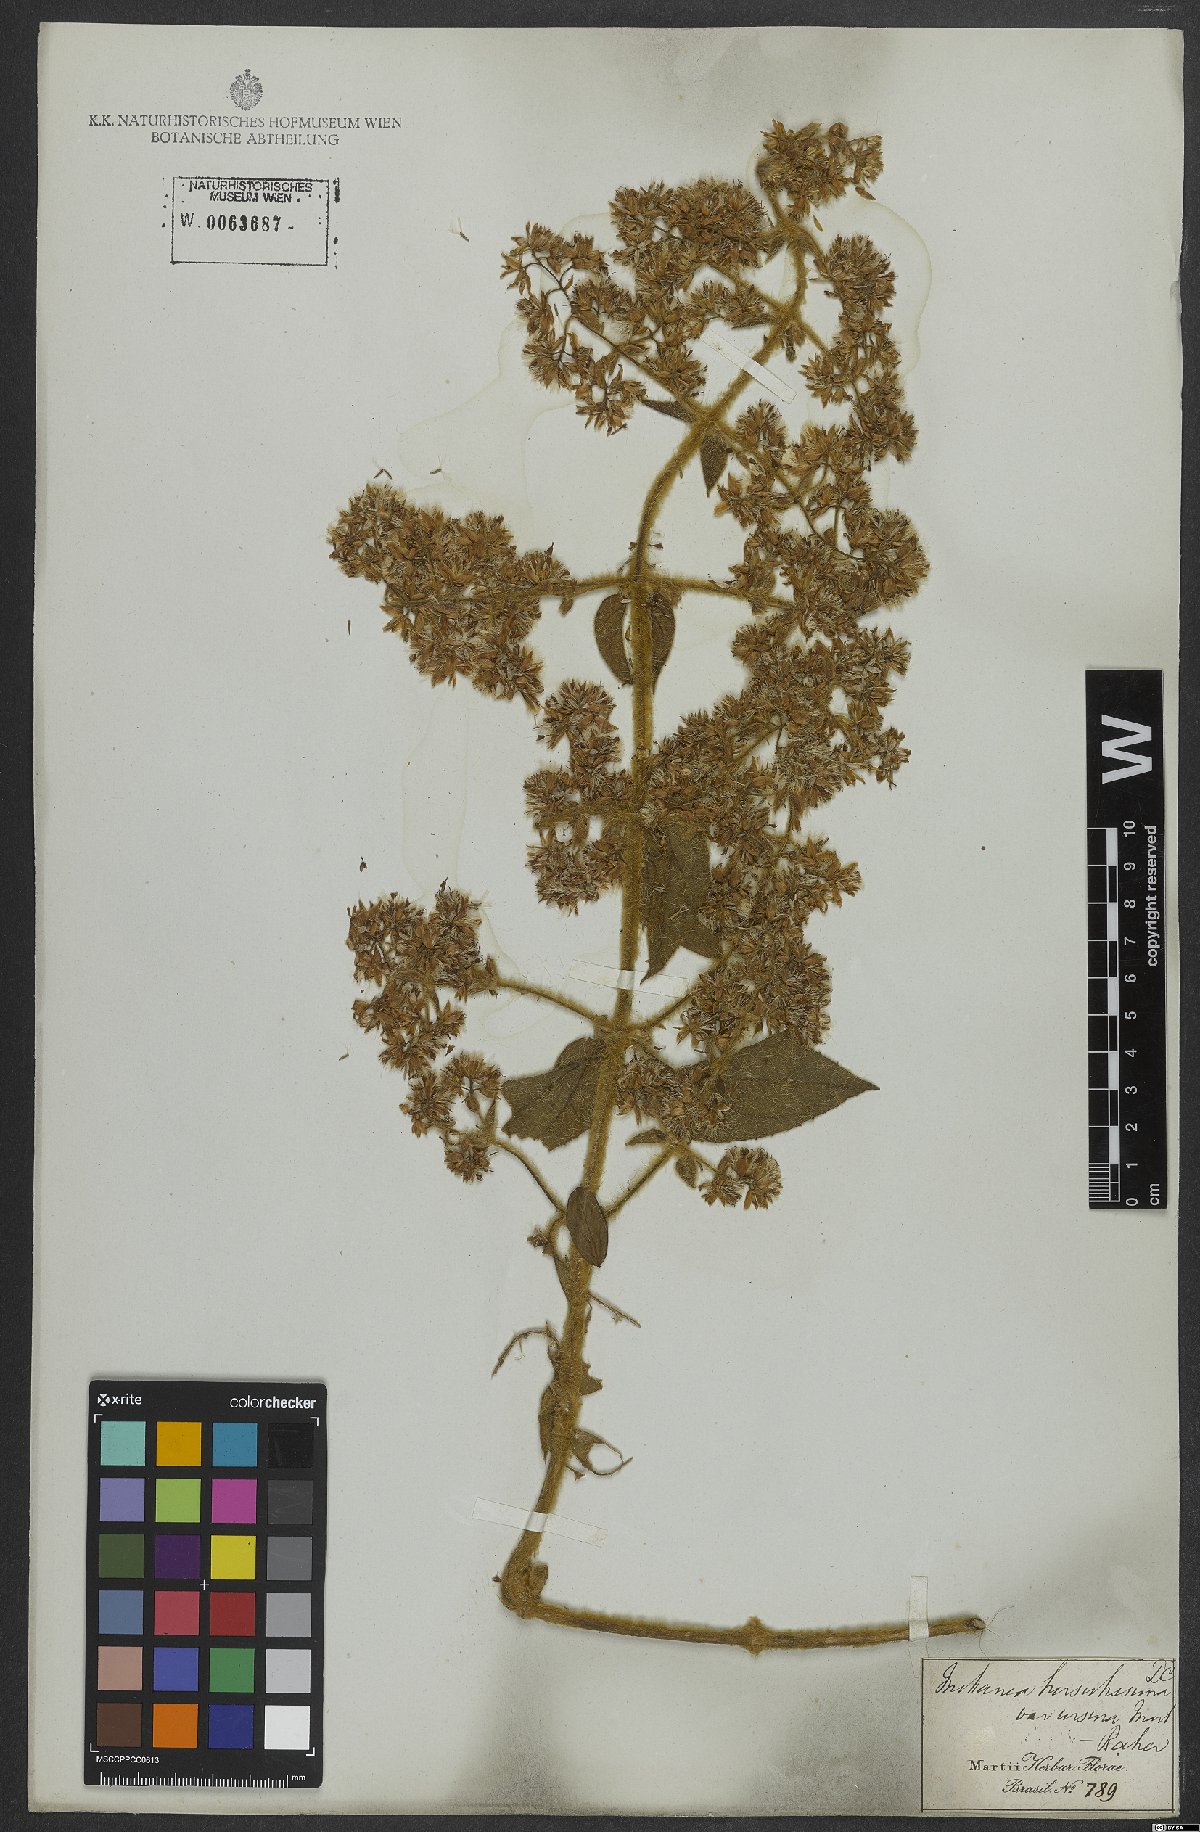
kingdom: Plantae
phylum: Tracheophyta
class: Magnoliopsida
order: Asterales
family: Asteraceae
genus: Mikania
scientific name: Mikania banisteriae
